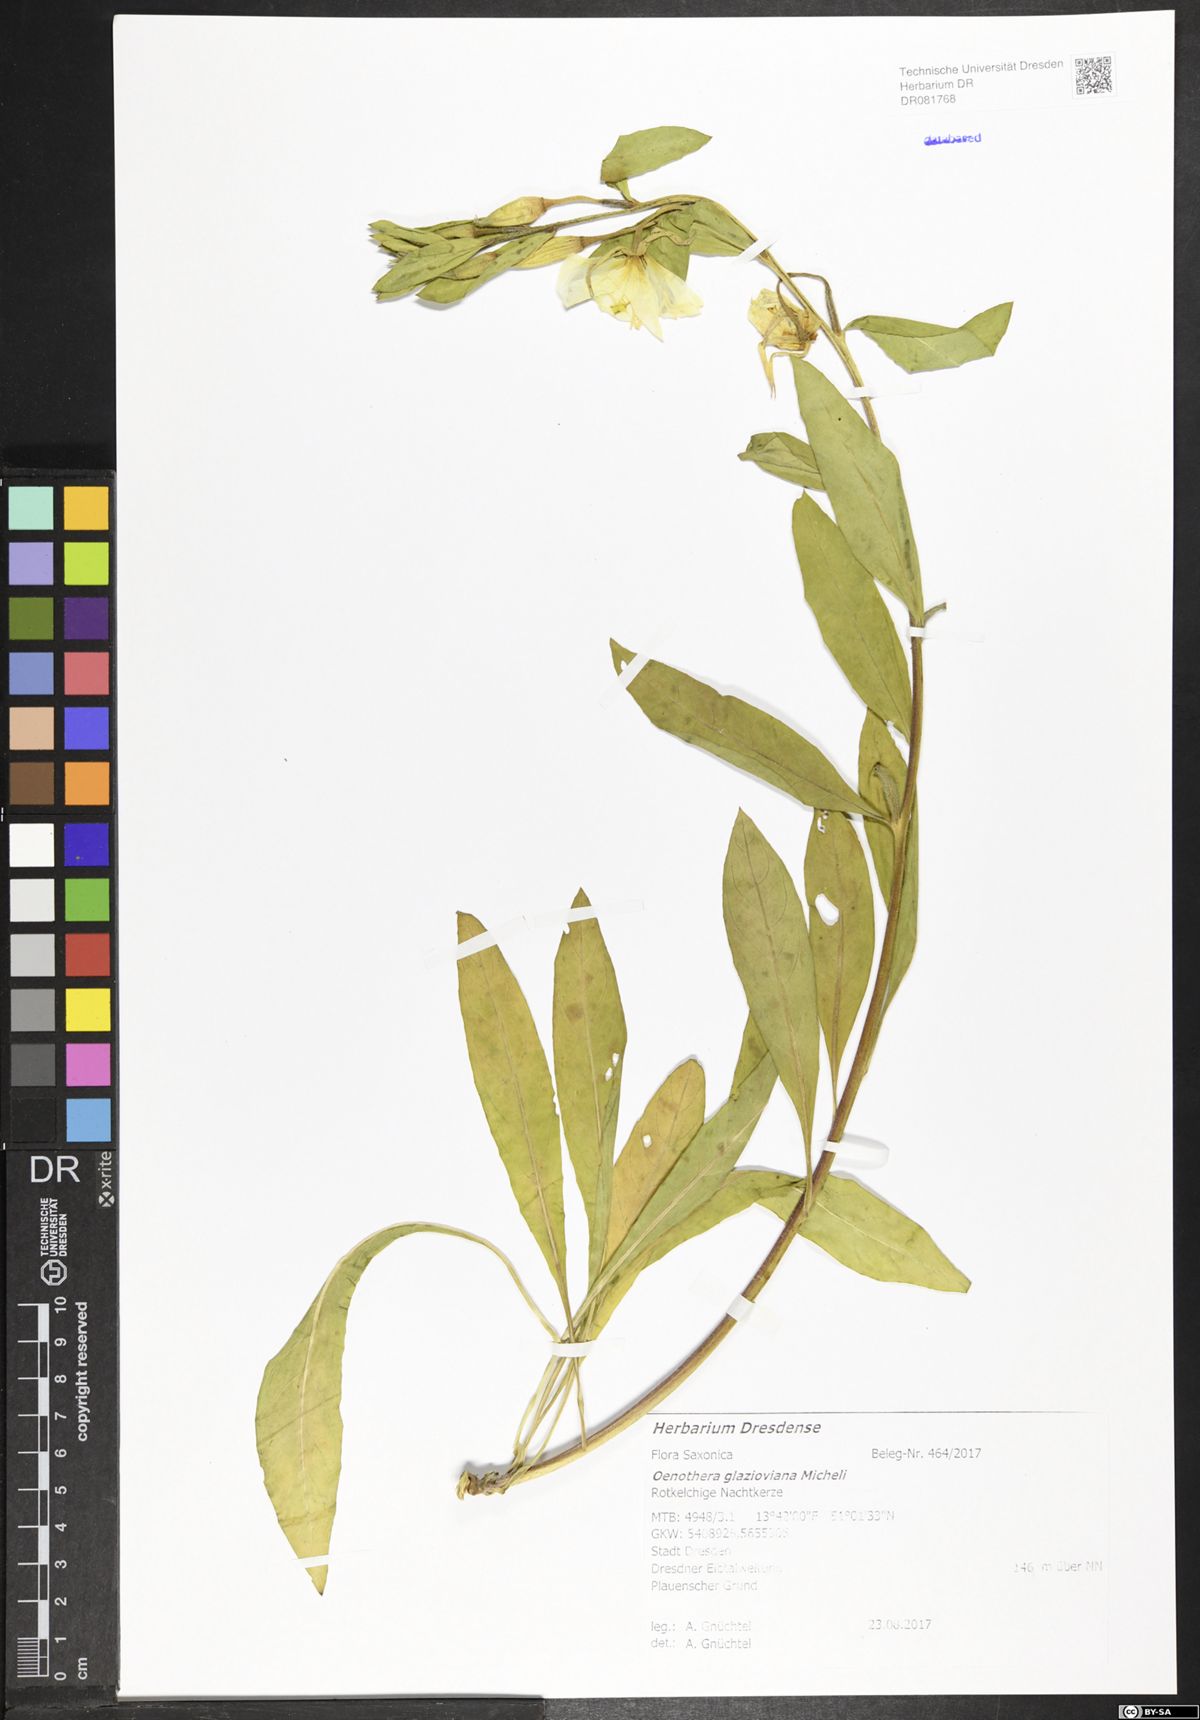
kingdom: Plantae
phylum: Tracheophyta
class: Magnoliopsida
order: Myrtales
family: Onagraceae
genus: Oenothera
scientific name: Oenothera glazioviana
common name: Large-flowered evening-primrose
